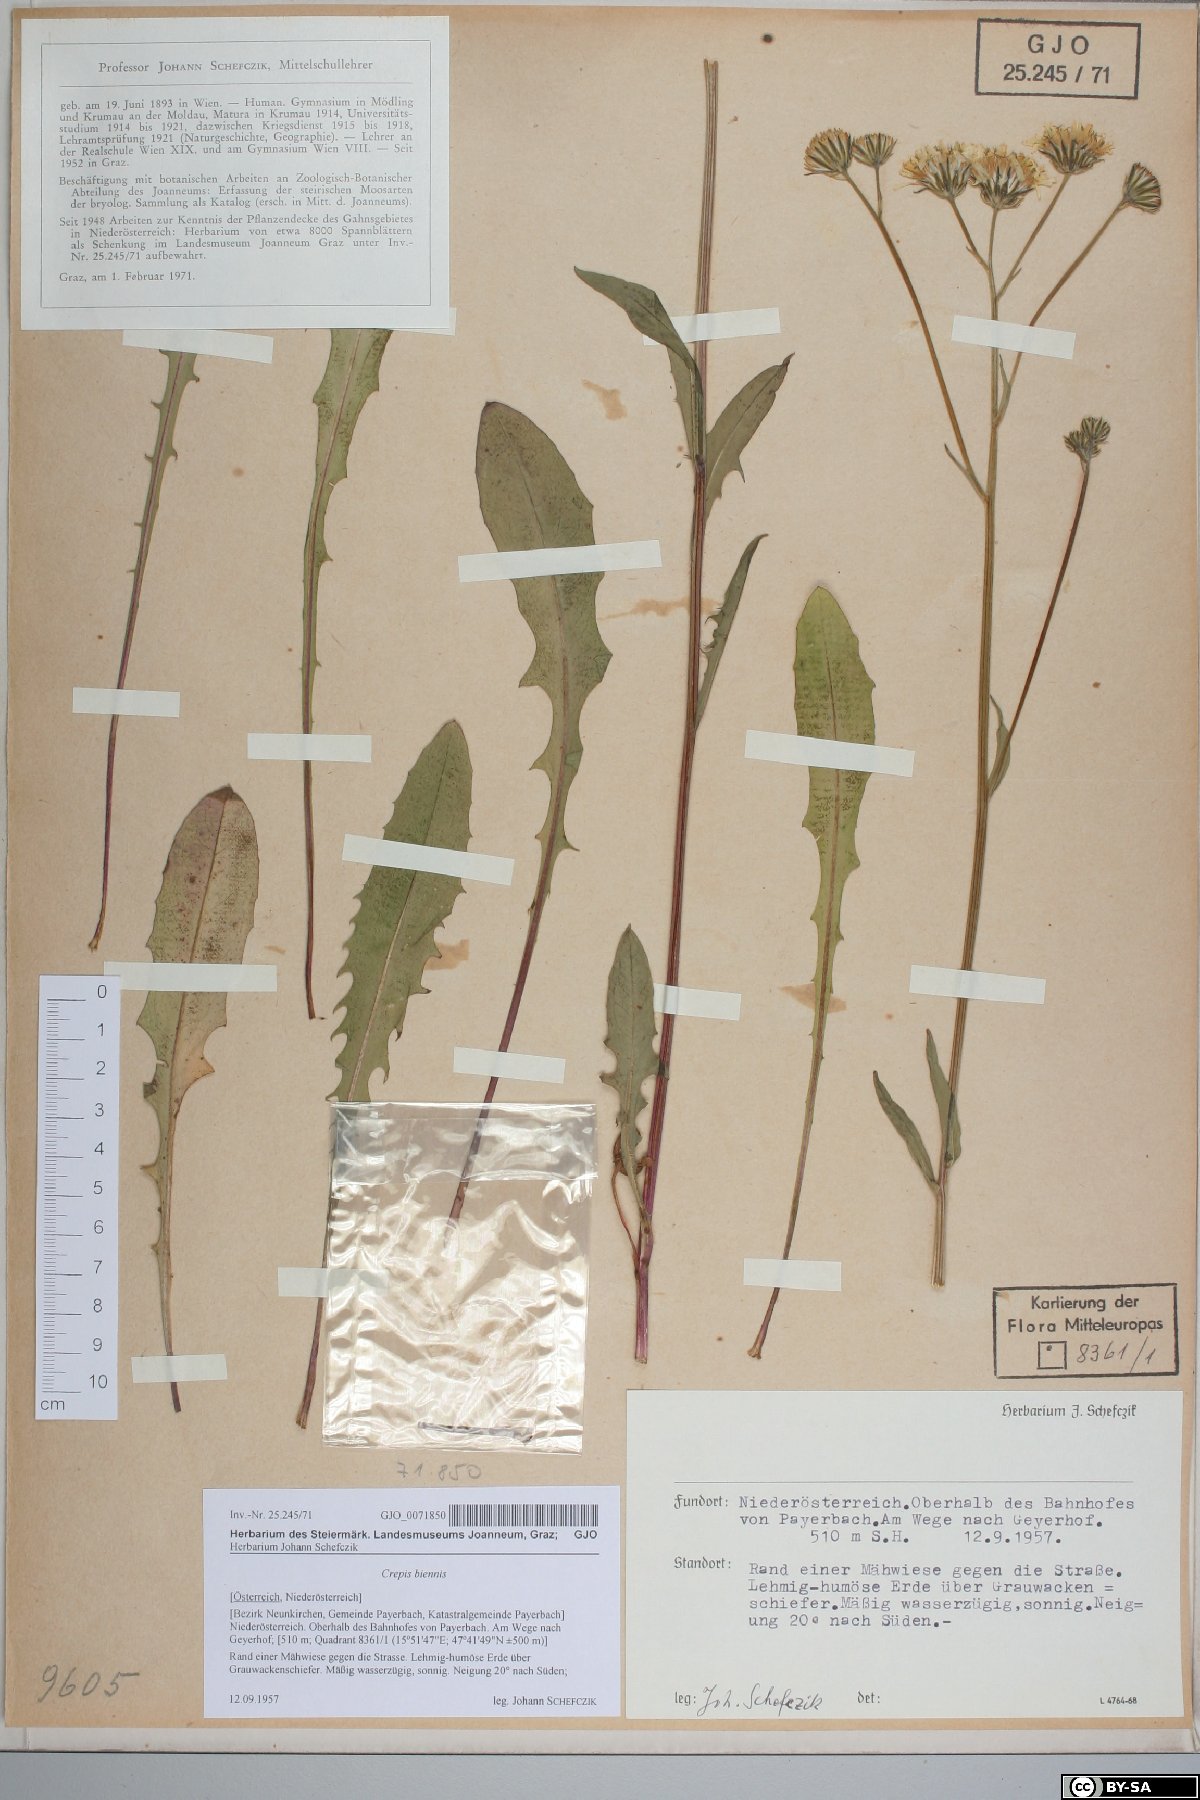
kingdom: Plantae
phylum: Tracheophyta
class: Magnoliopsida
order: Asterales
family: Asteraceae
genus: Crepis
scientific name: Crepis biennis
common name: Rough hawk's-beard
